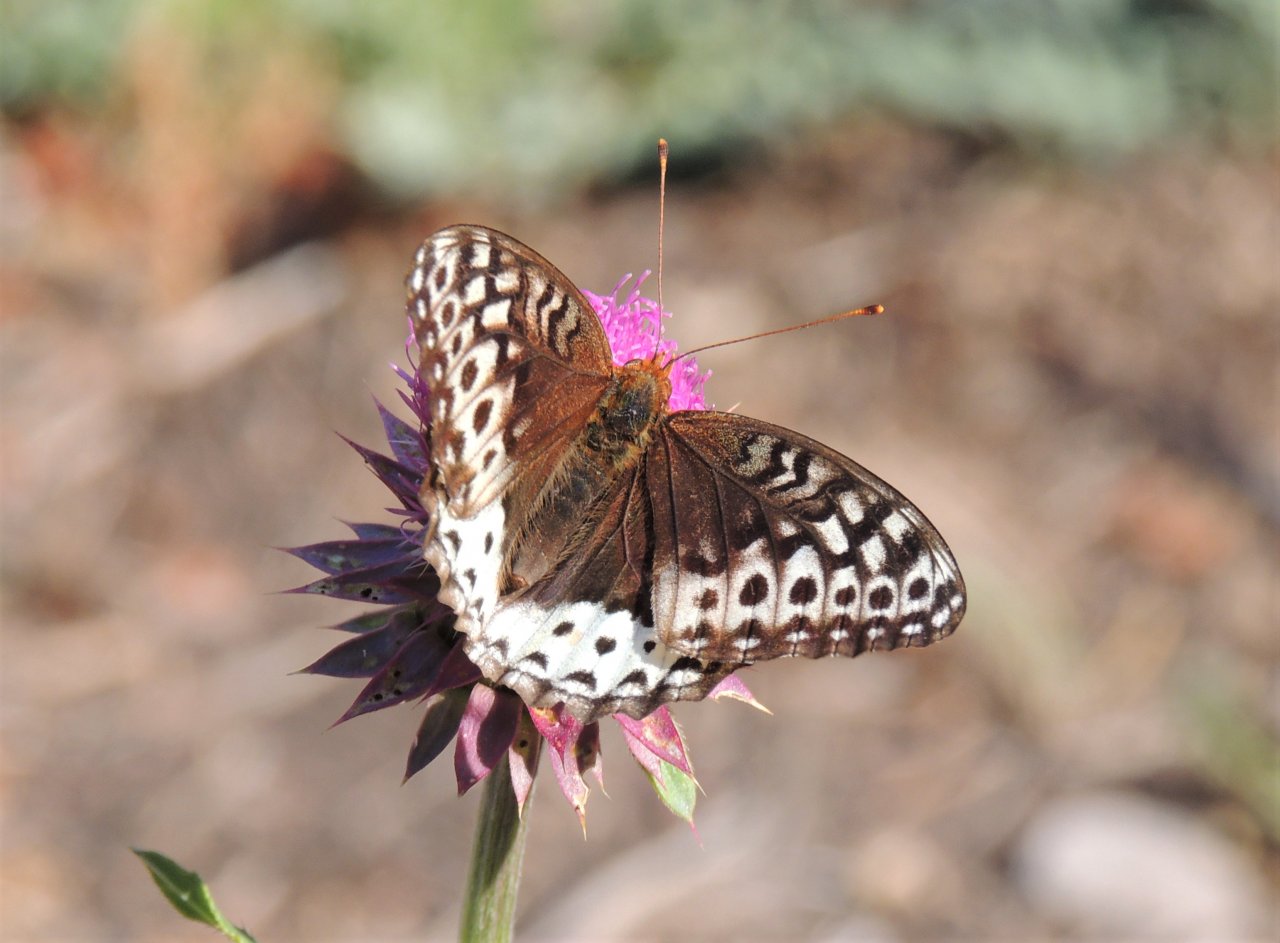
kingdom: Animalia
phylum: Arthropoda
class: Insecta
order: Lepidoptera
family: Nymphalidae
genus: Speyeria
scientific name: Speyeria cybele
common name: Great Spangled Fritillary
